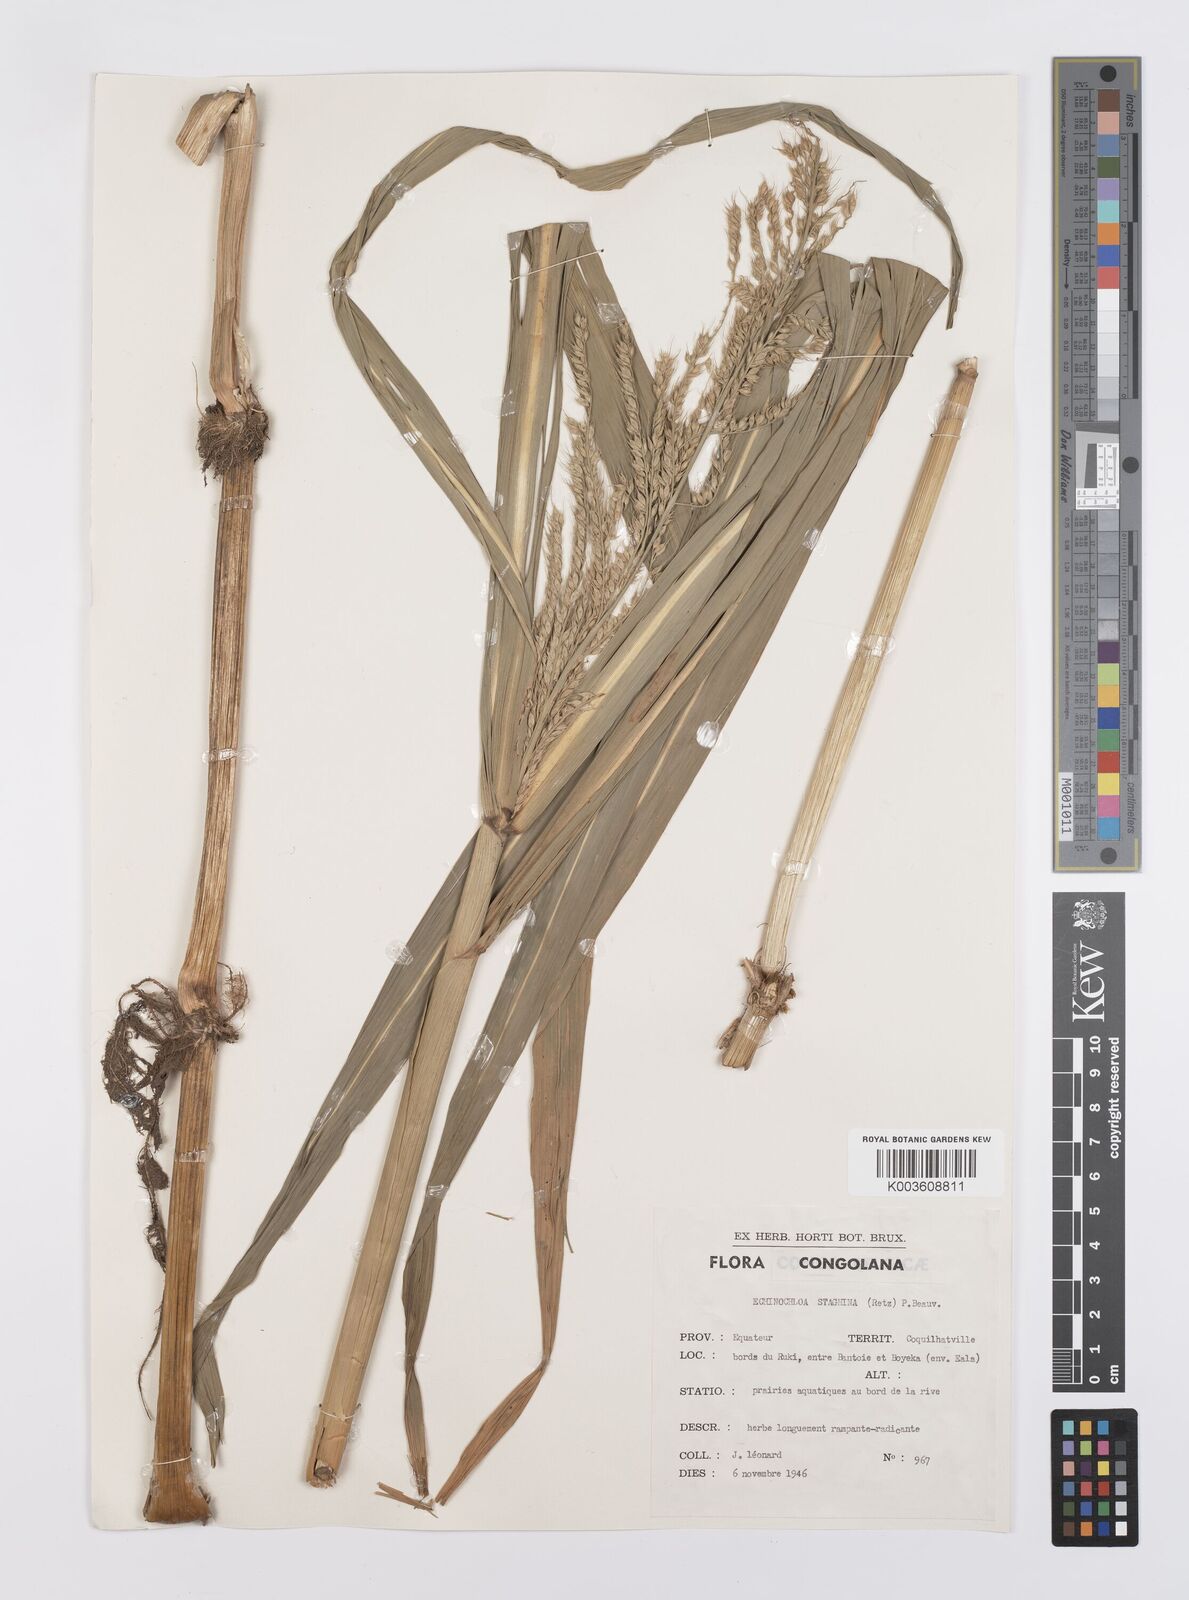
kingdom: Plantae
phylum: Tracheophyta
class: Liliopsida
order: Poales
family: Poaceae
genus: Echinochloa
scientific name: Echinochloa stagnina
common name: Burgu grass
